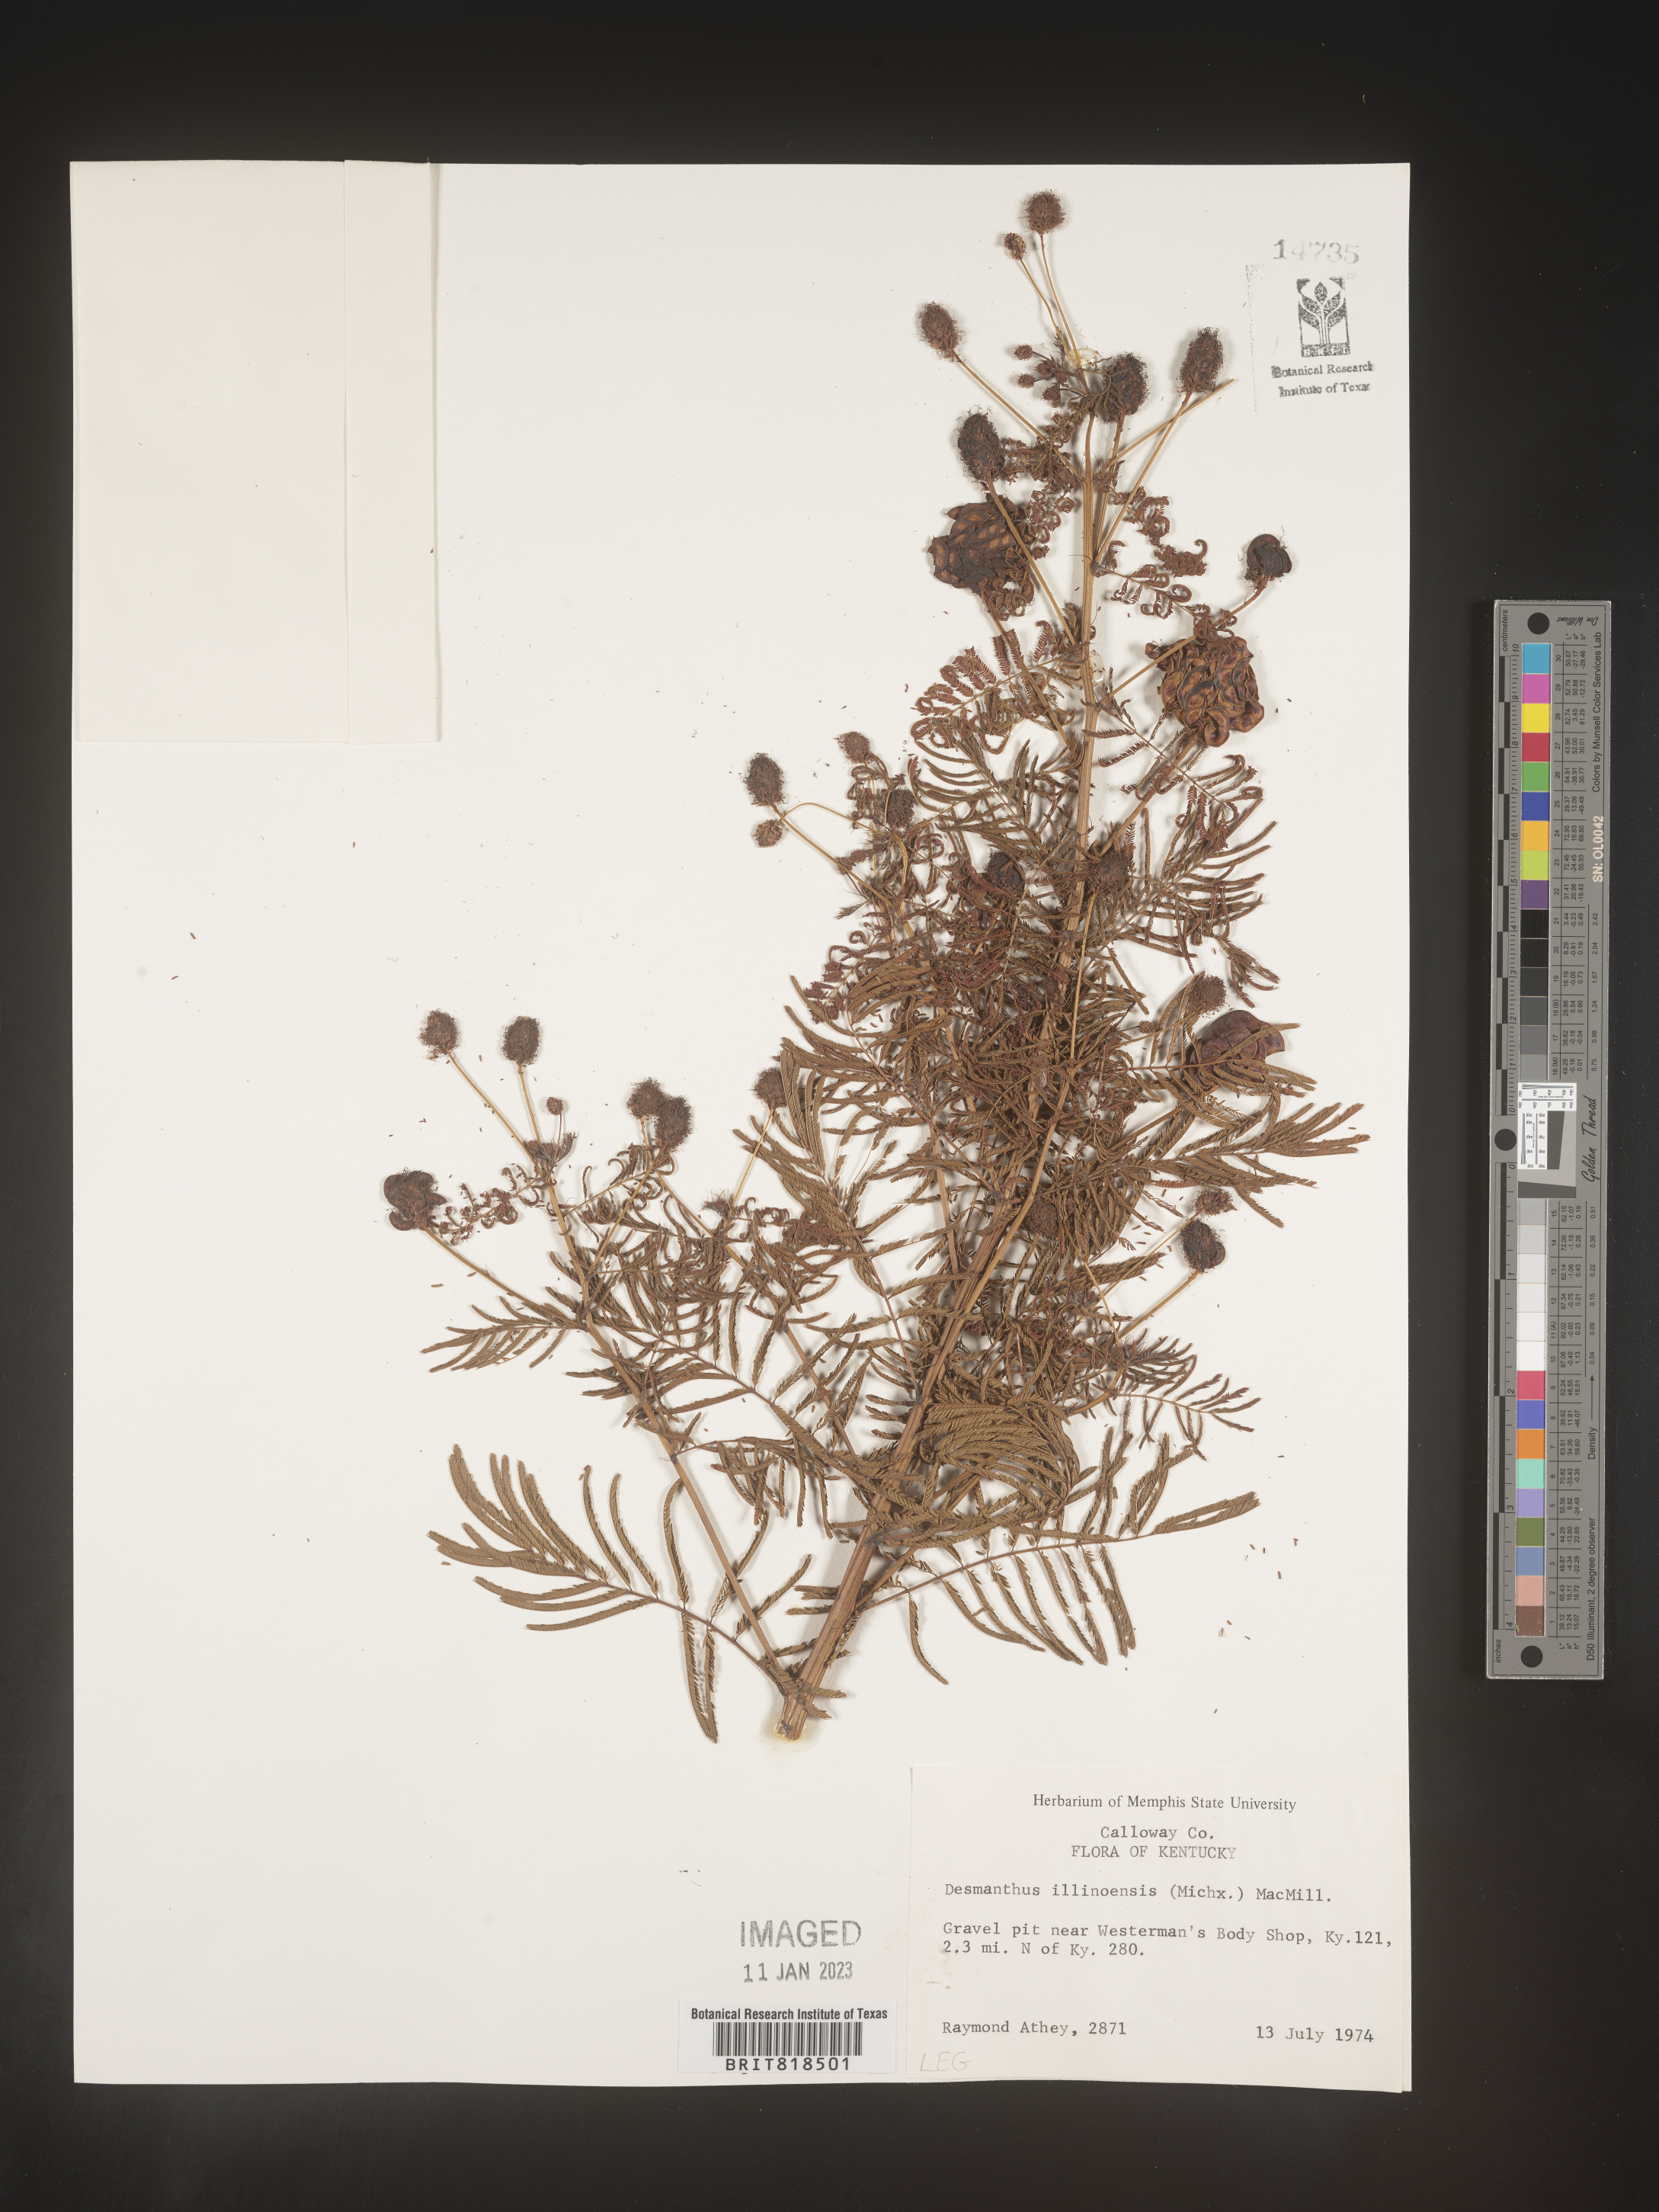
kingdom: Plantae
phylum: Tracheophyta
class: Magnoliopsida
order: Fabales
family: Fabaceae
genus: Desmanthus
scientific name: Desmanthus illinoensis
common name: Illinois bundle-flower
